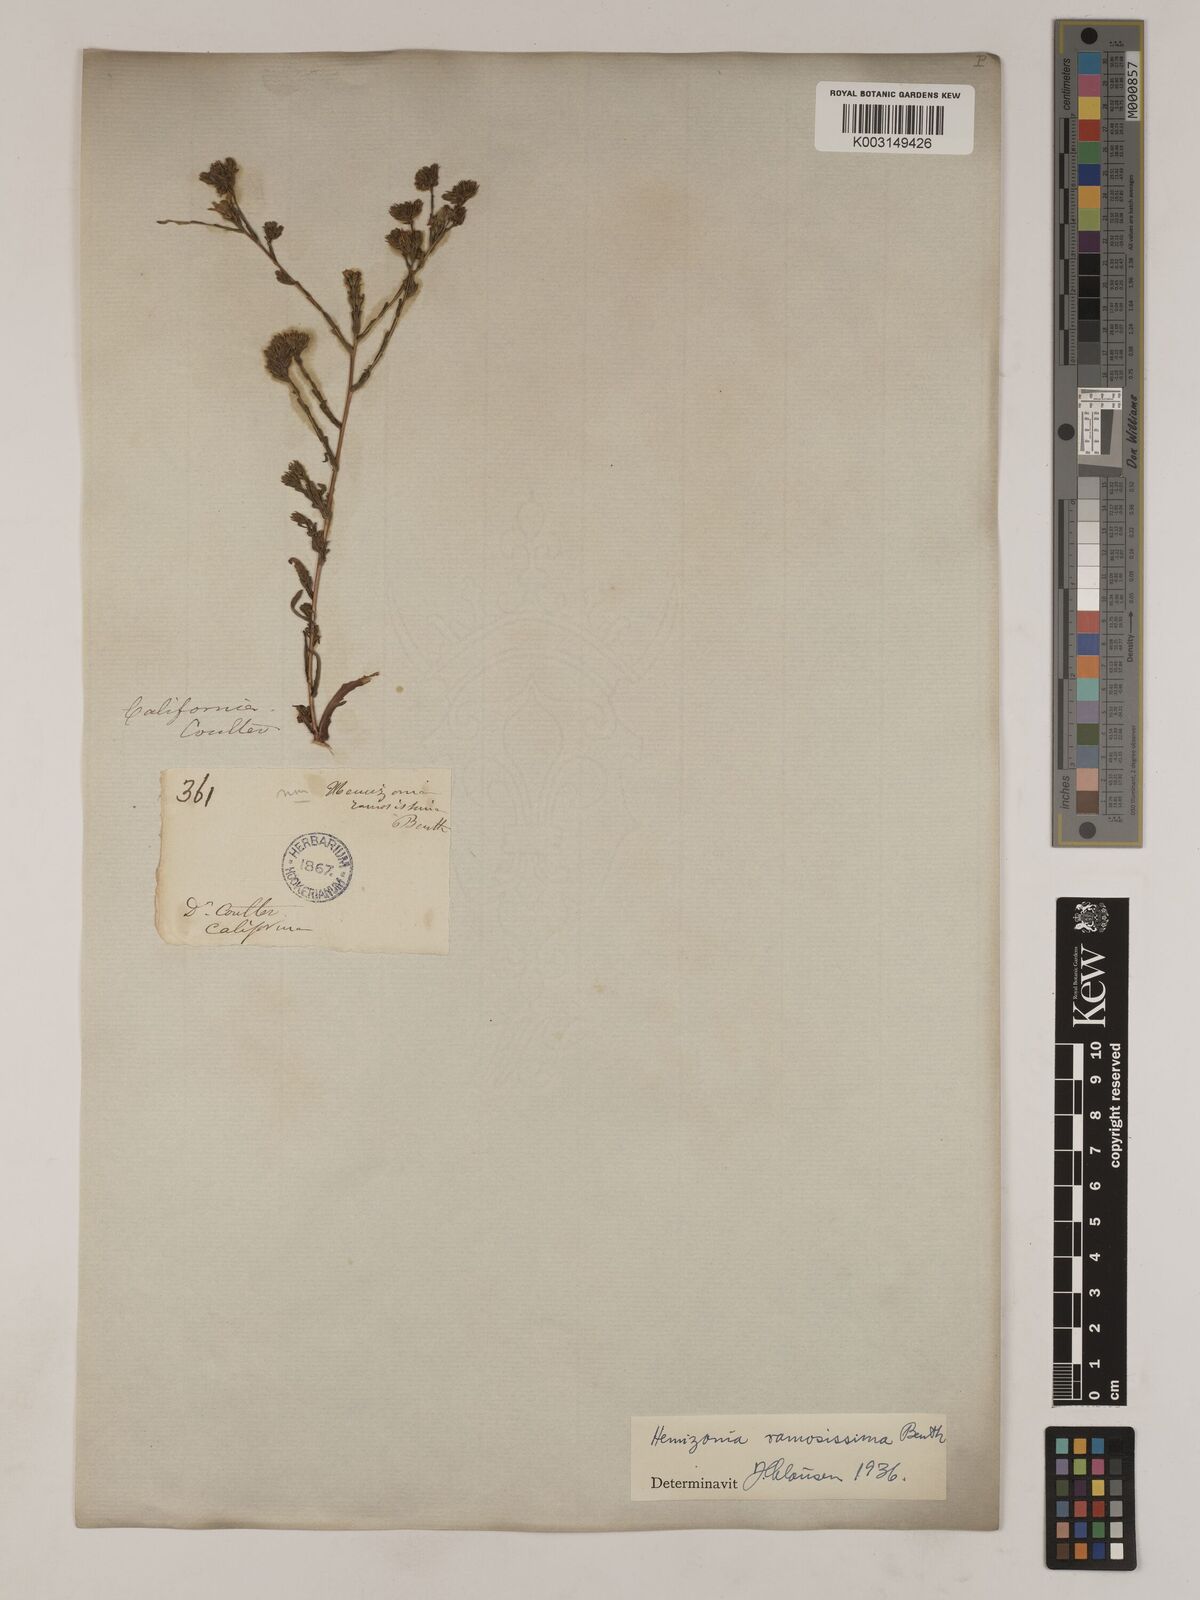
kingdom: Plantae
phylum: Tracheophyta
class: Magnoliopsida
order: Asterales
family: Asteraceae
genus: Deinandra
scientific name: Deinandra fasciculata
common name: Clustered tarweed
